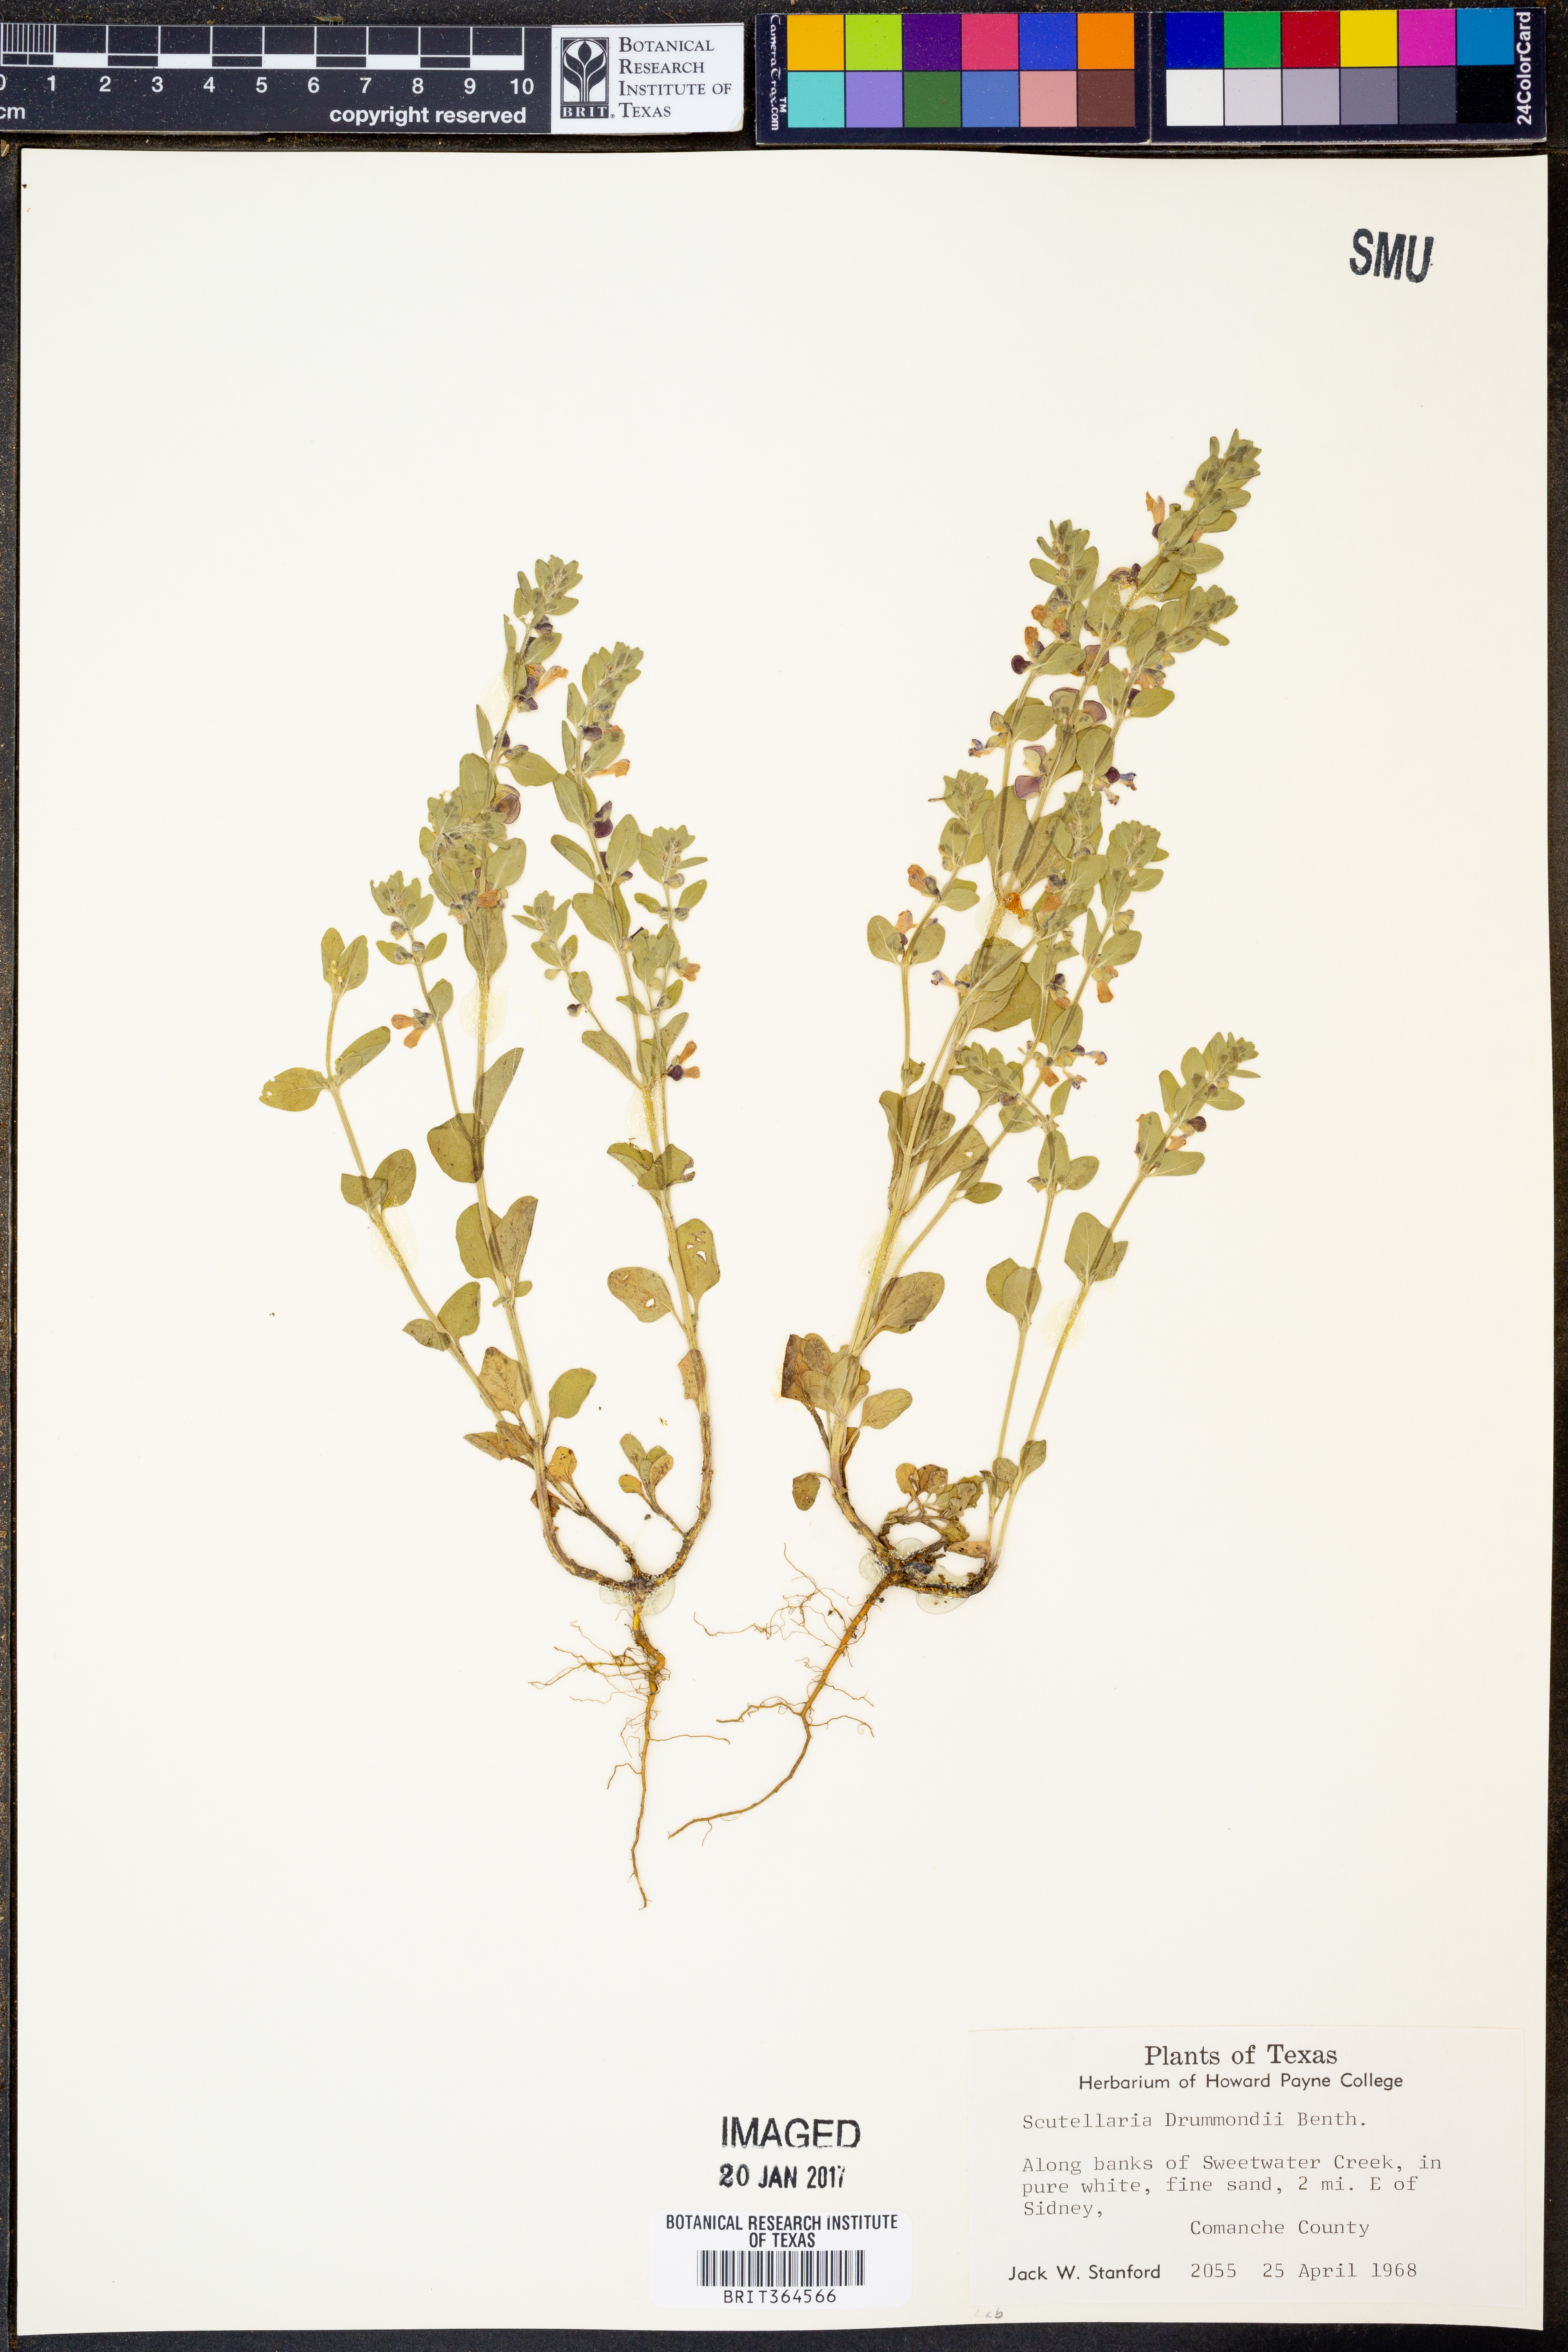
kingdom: Plantae
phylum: Tracheophyta
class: Magnoliopsida
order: Lamiales
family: Lamiaceae
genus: Scutellaria
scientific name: Scutellaria drummondii
